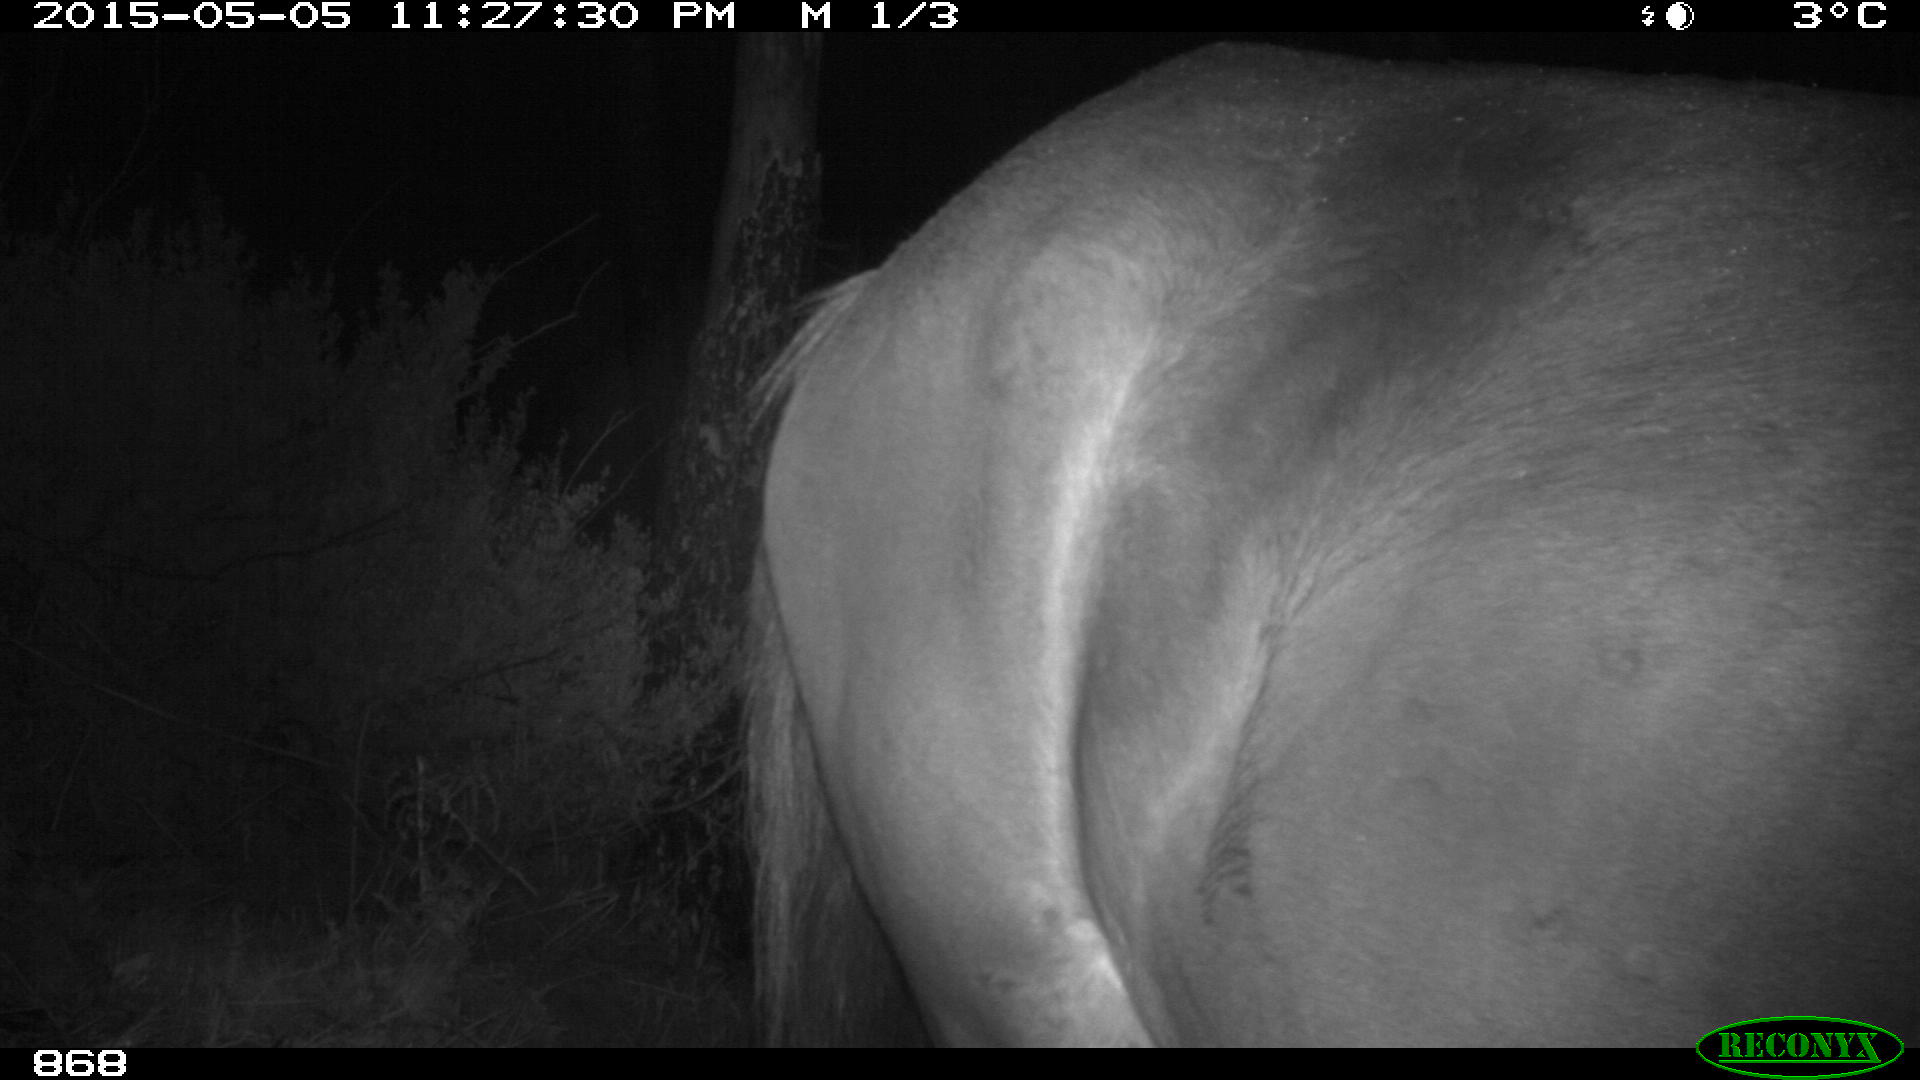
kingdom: Animalia
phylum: Chordata
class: Mammalia
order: Perissodactyla
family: Equidae
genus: Equus
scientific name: Equus caballus
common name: Horse
